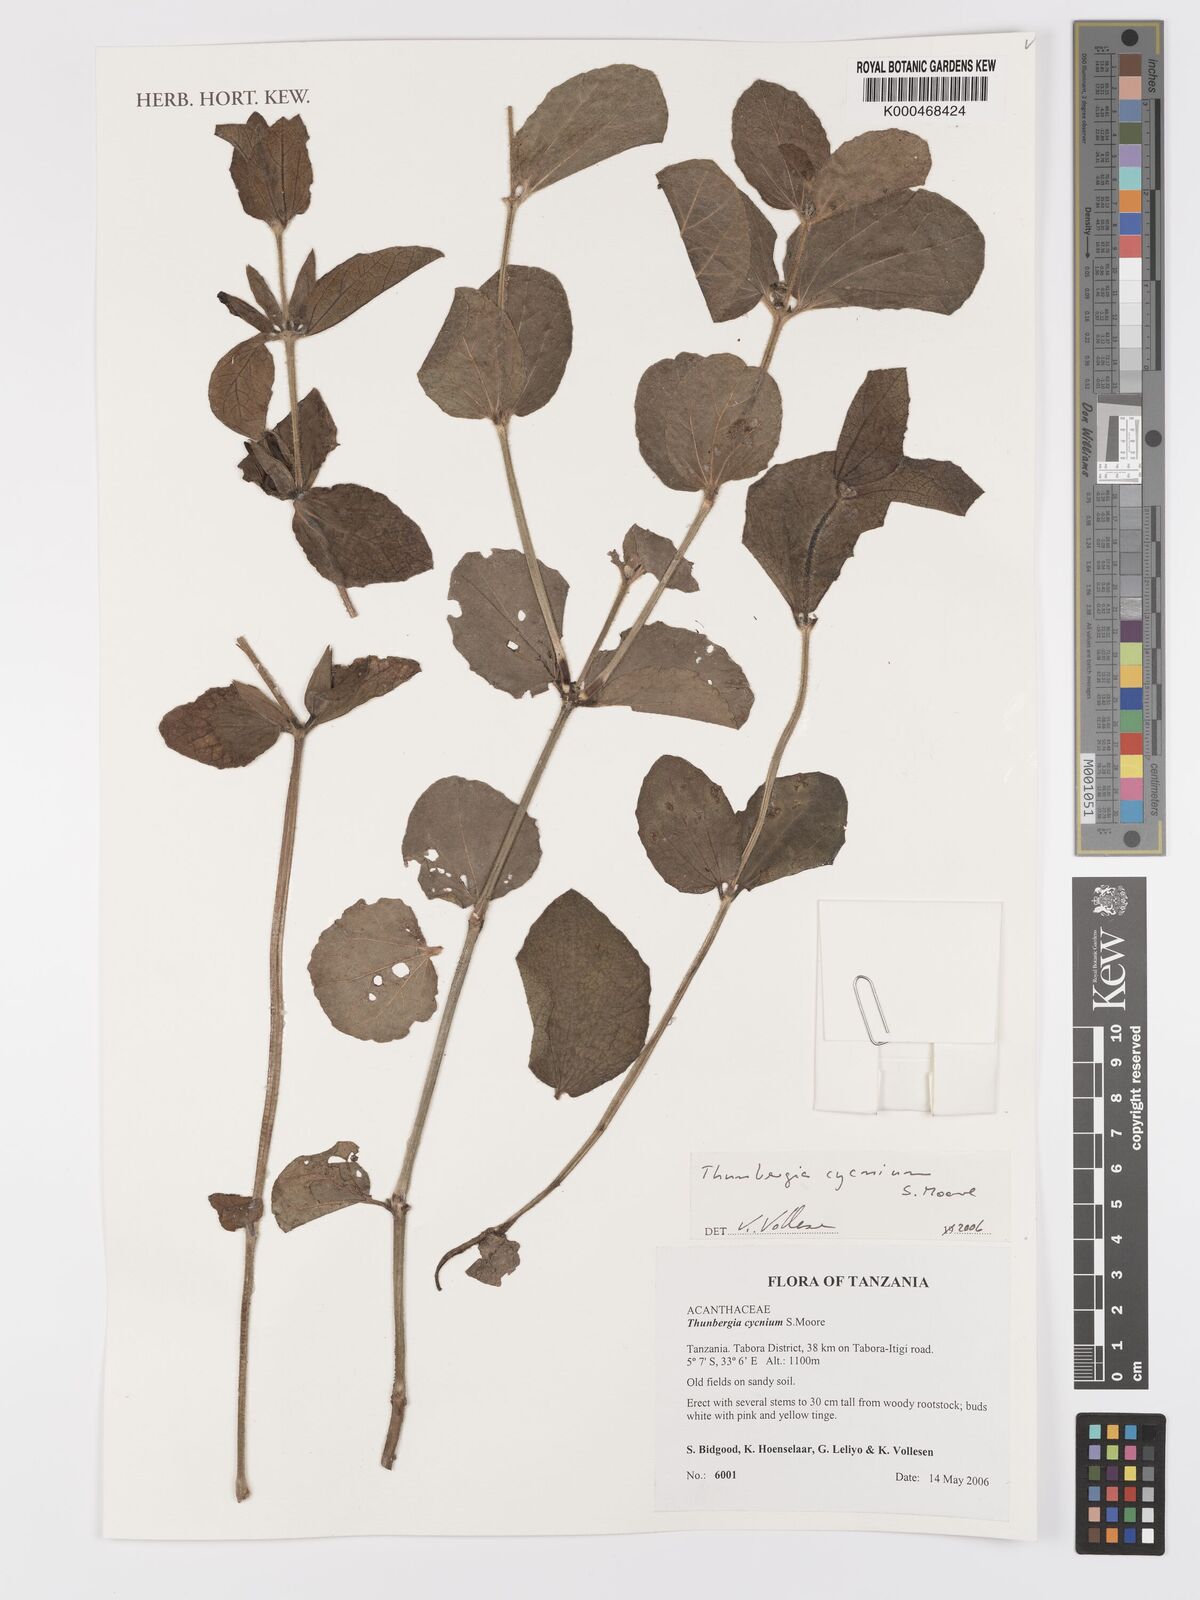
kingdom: Plantae
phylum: Tracheophyta
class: Magnoliopsida
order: Lamiales
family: Acanthaceae
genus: Thunbergia
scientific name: Thunbergia cycnium
